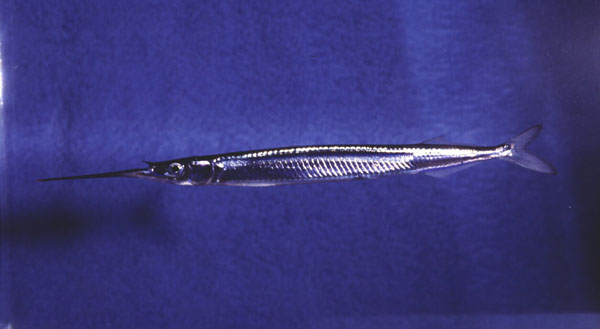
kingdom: Animalia
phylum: Chordata
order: Beloniformes
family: Hemiramphidae
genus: Hyporhamphus
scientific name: Hyporhamphus affinis
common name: Tropical halfbeak
